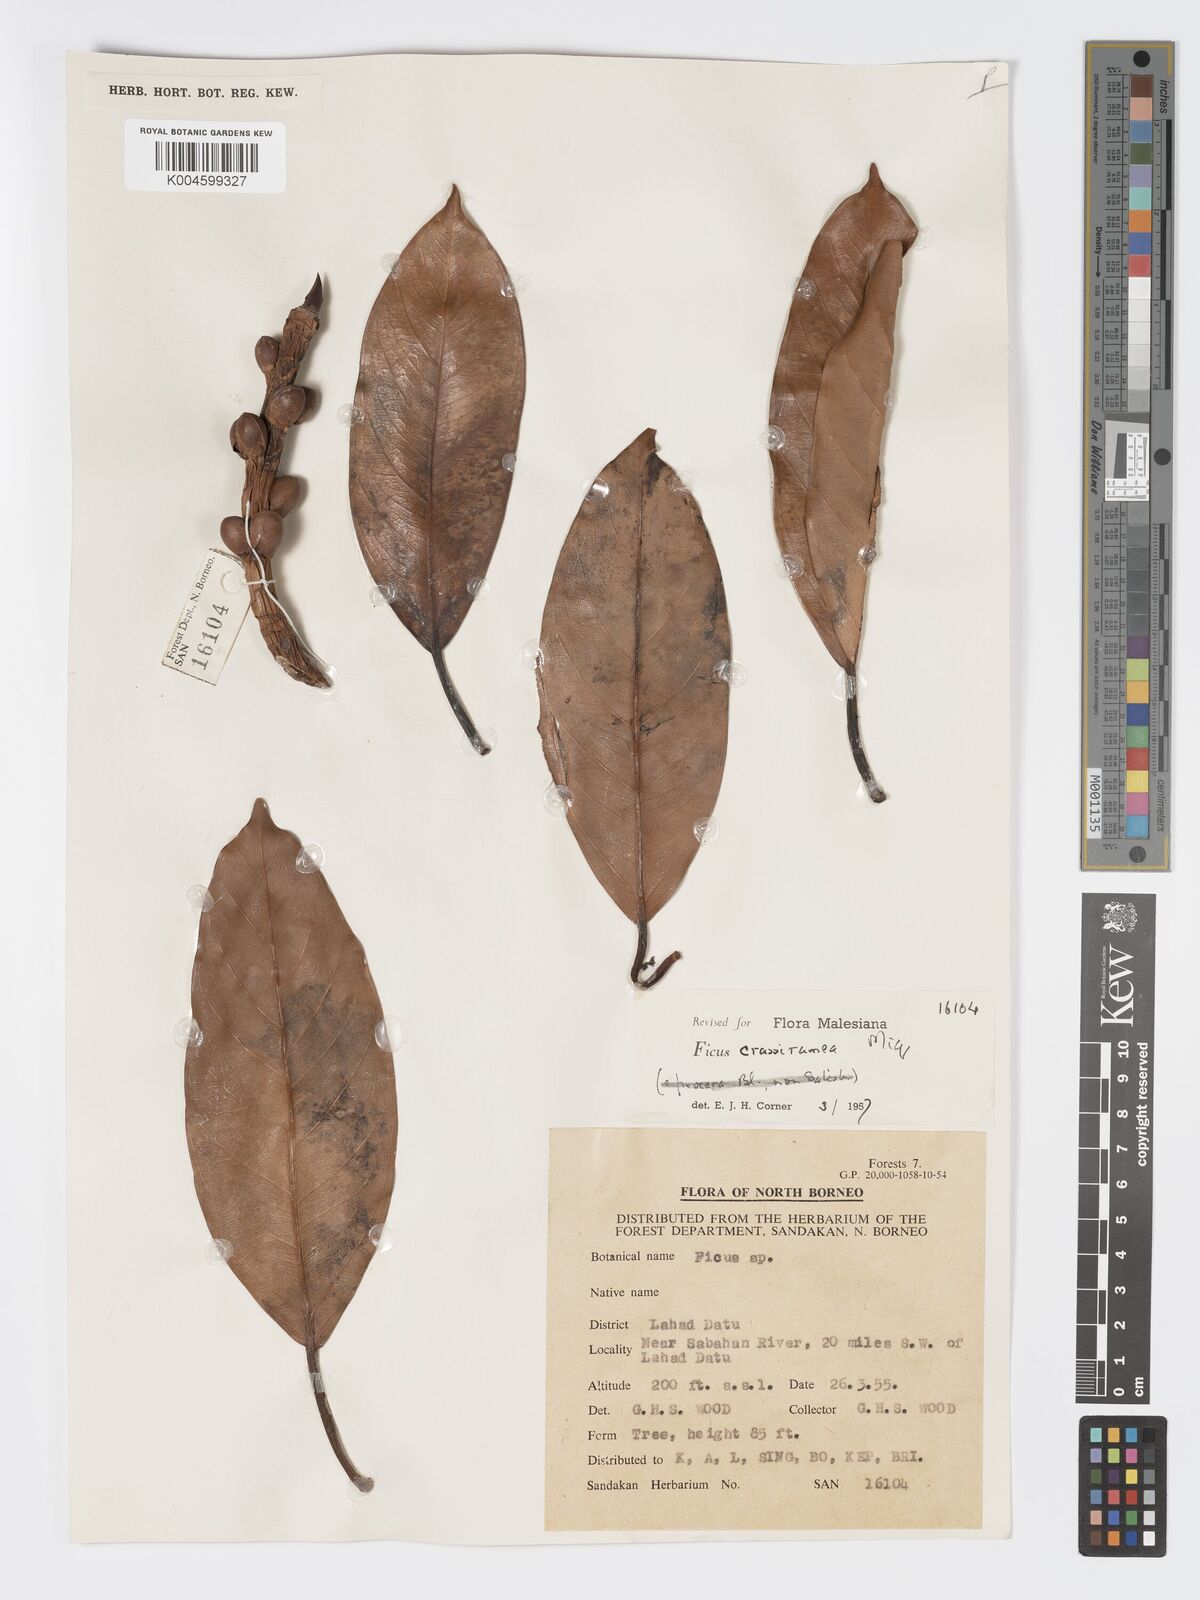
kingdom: Plantae
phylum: Tracheophyta
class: Magnoliopsida
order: Rosales
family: Moraceae
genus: Ficus
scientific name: Ficus crassiramea
